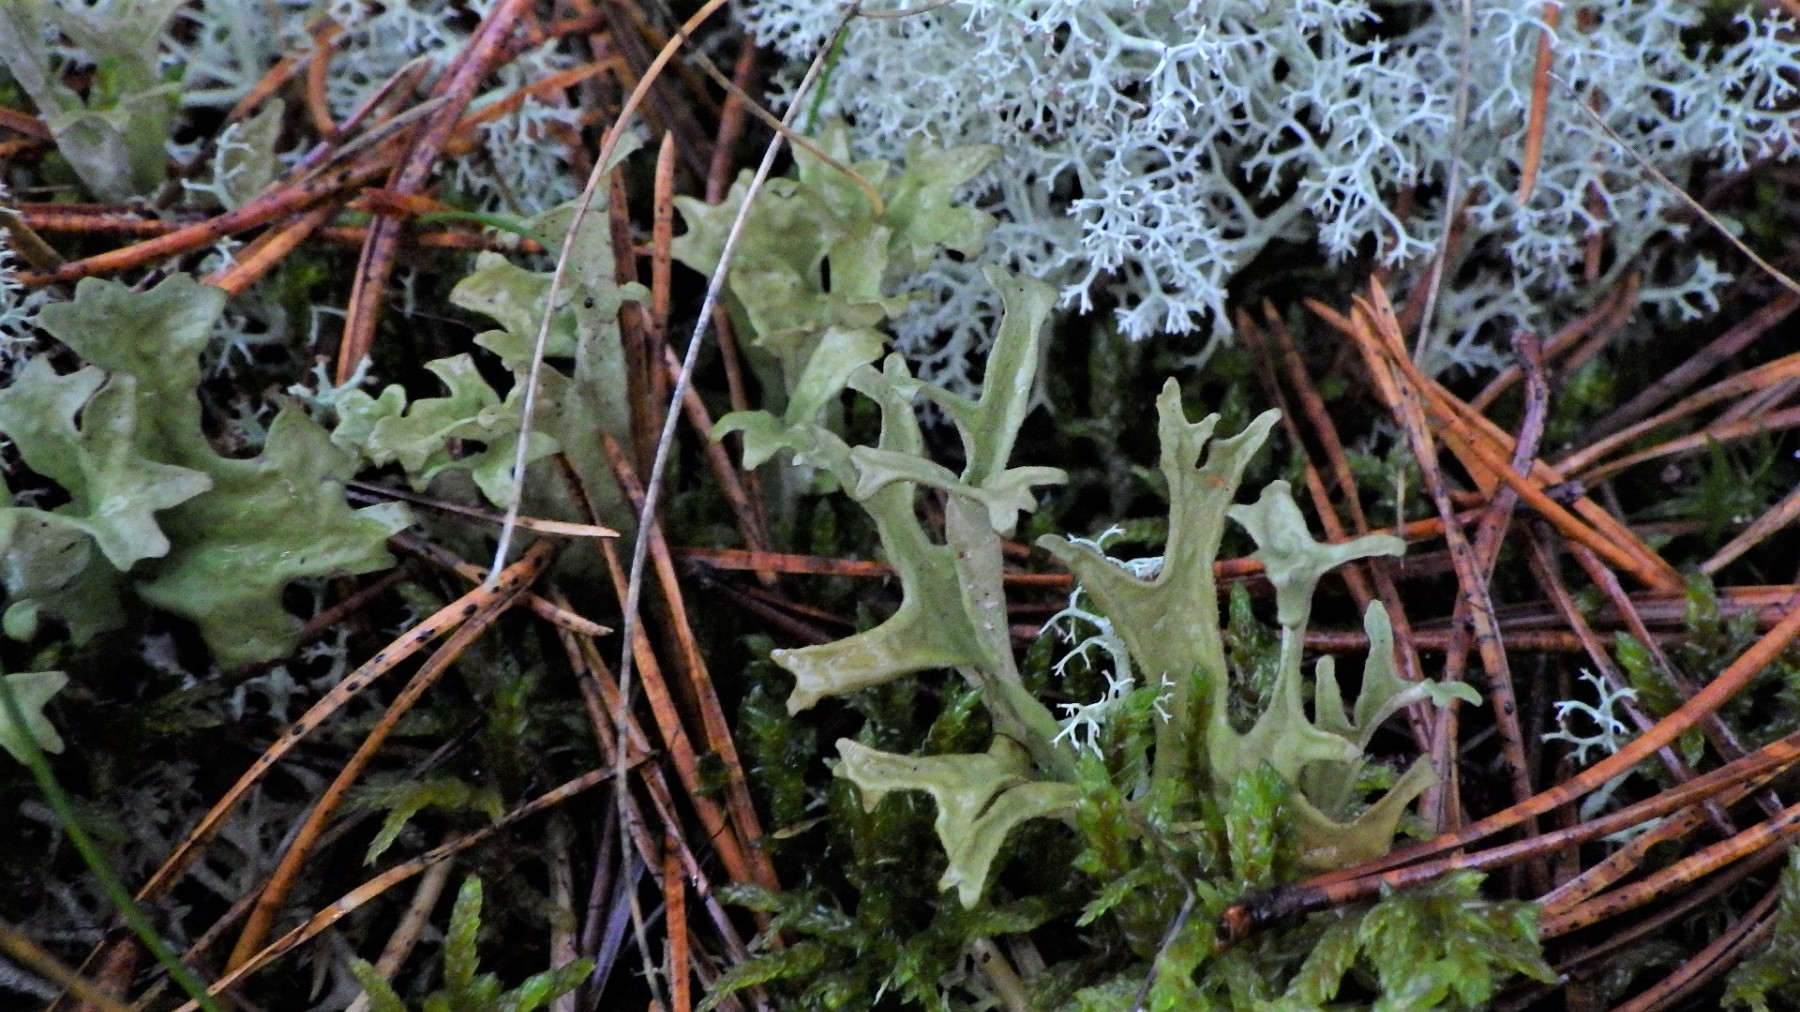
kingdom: Fungi
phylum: Ascomycota
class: Lecanoromycetes
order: Lecanorales
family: Parmeliaceae
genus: Cetraria
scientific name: Cetraria islandica
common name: islandsk kruslav
